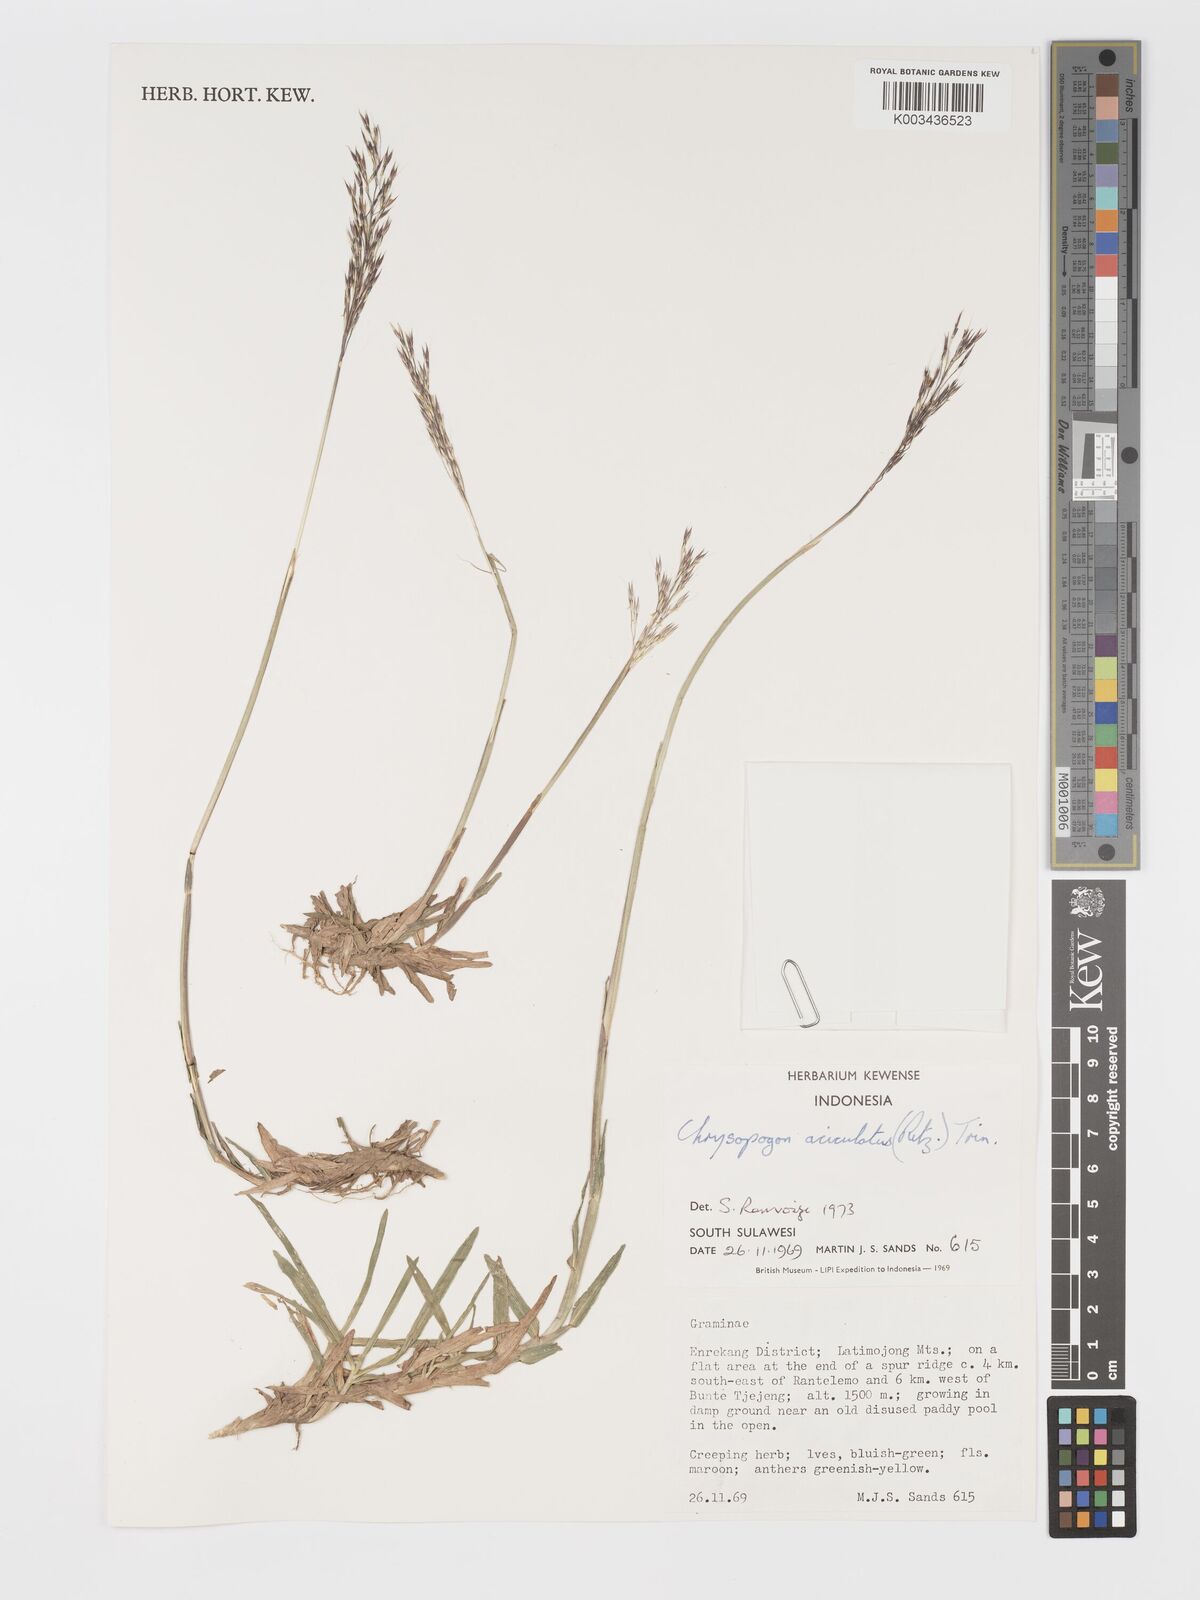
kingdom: Plantae
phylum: Tracheophyta
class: Liliopsida
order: Poales
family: Poaceae
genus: Chrysopogon
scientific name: Chrysopogon aciculatus
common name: Pilipiliula
